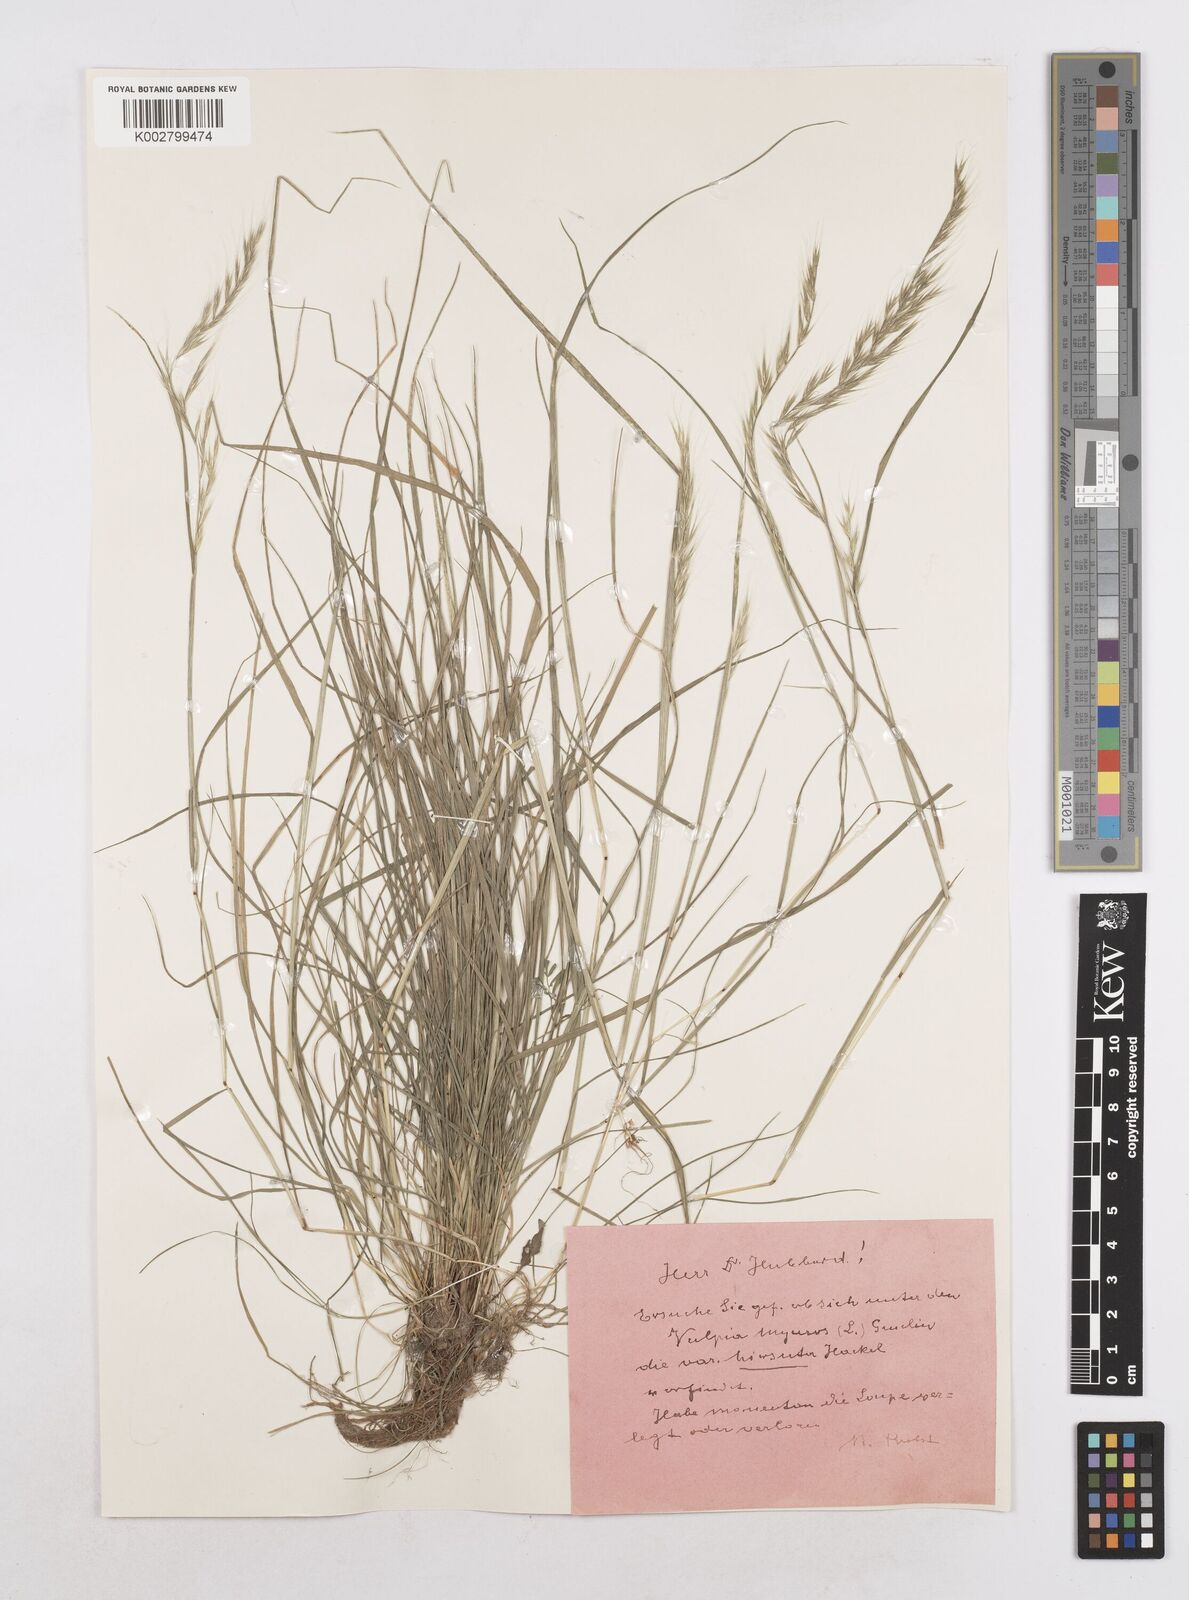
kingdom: Plantae
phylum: Tracheophyta
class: Liliopsida
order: Poales
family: Poaceae
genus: Festuca
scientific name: Festuca myuros
